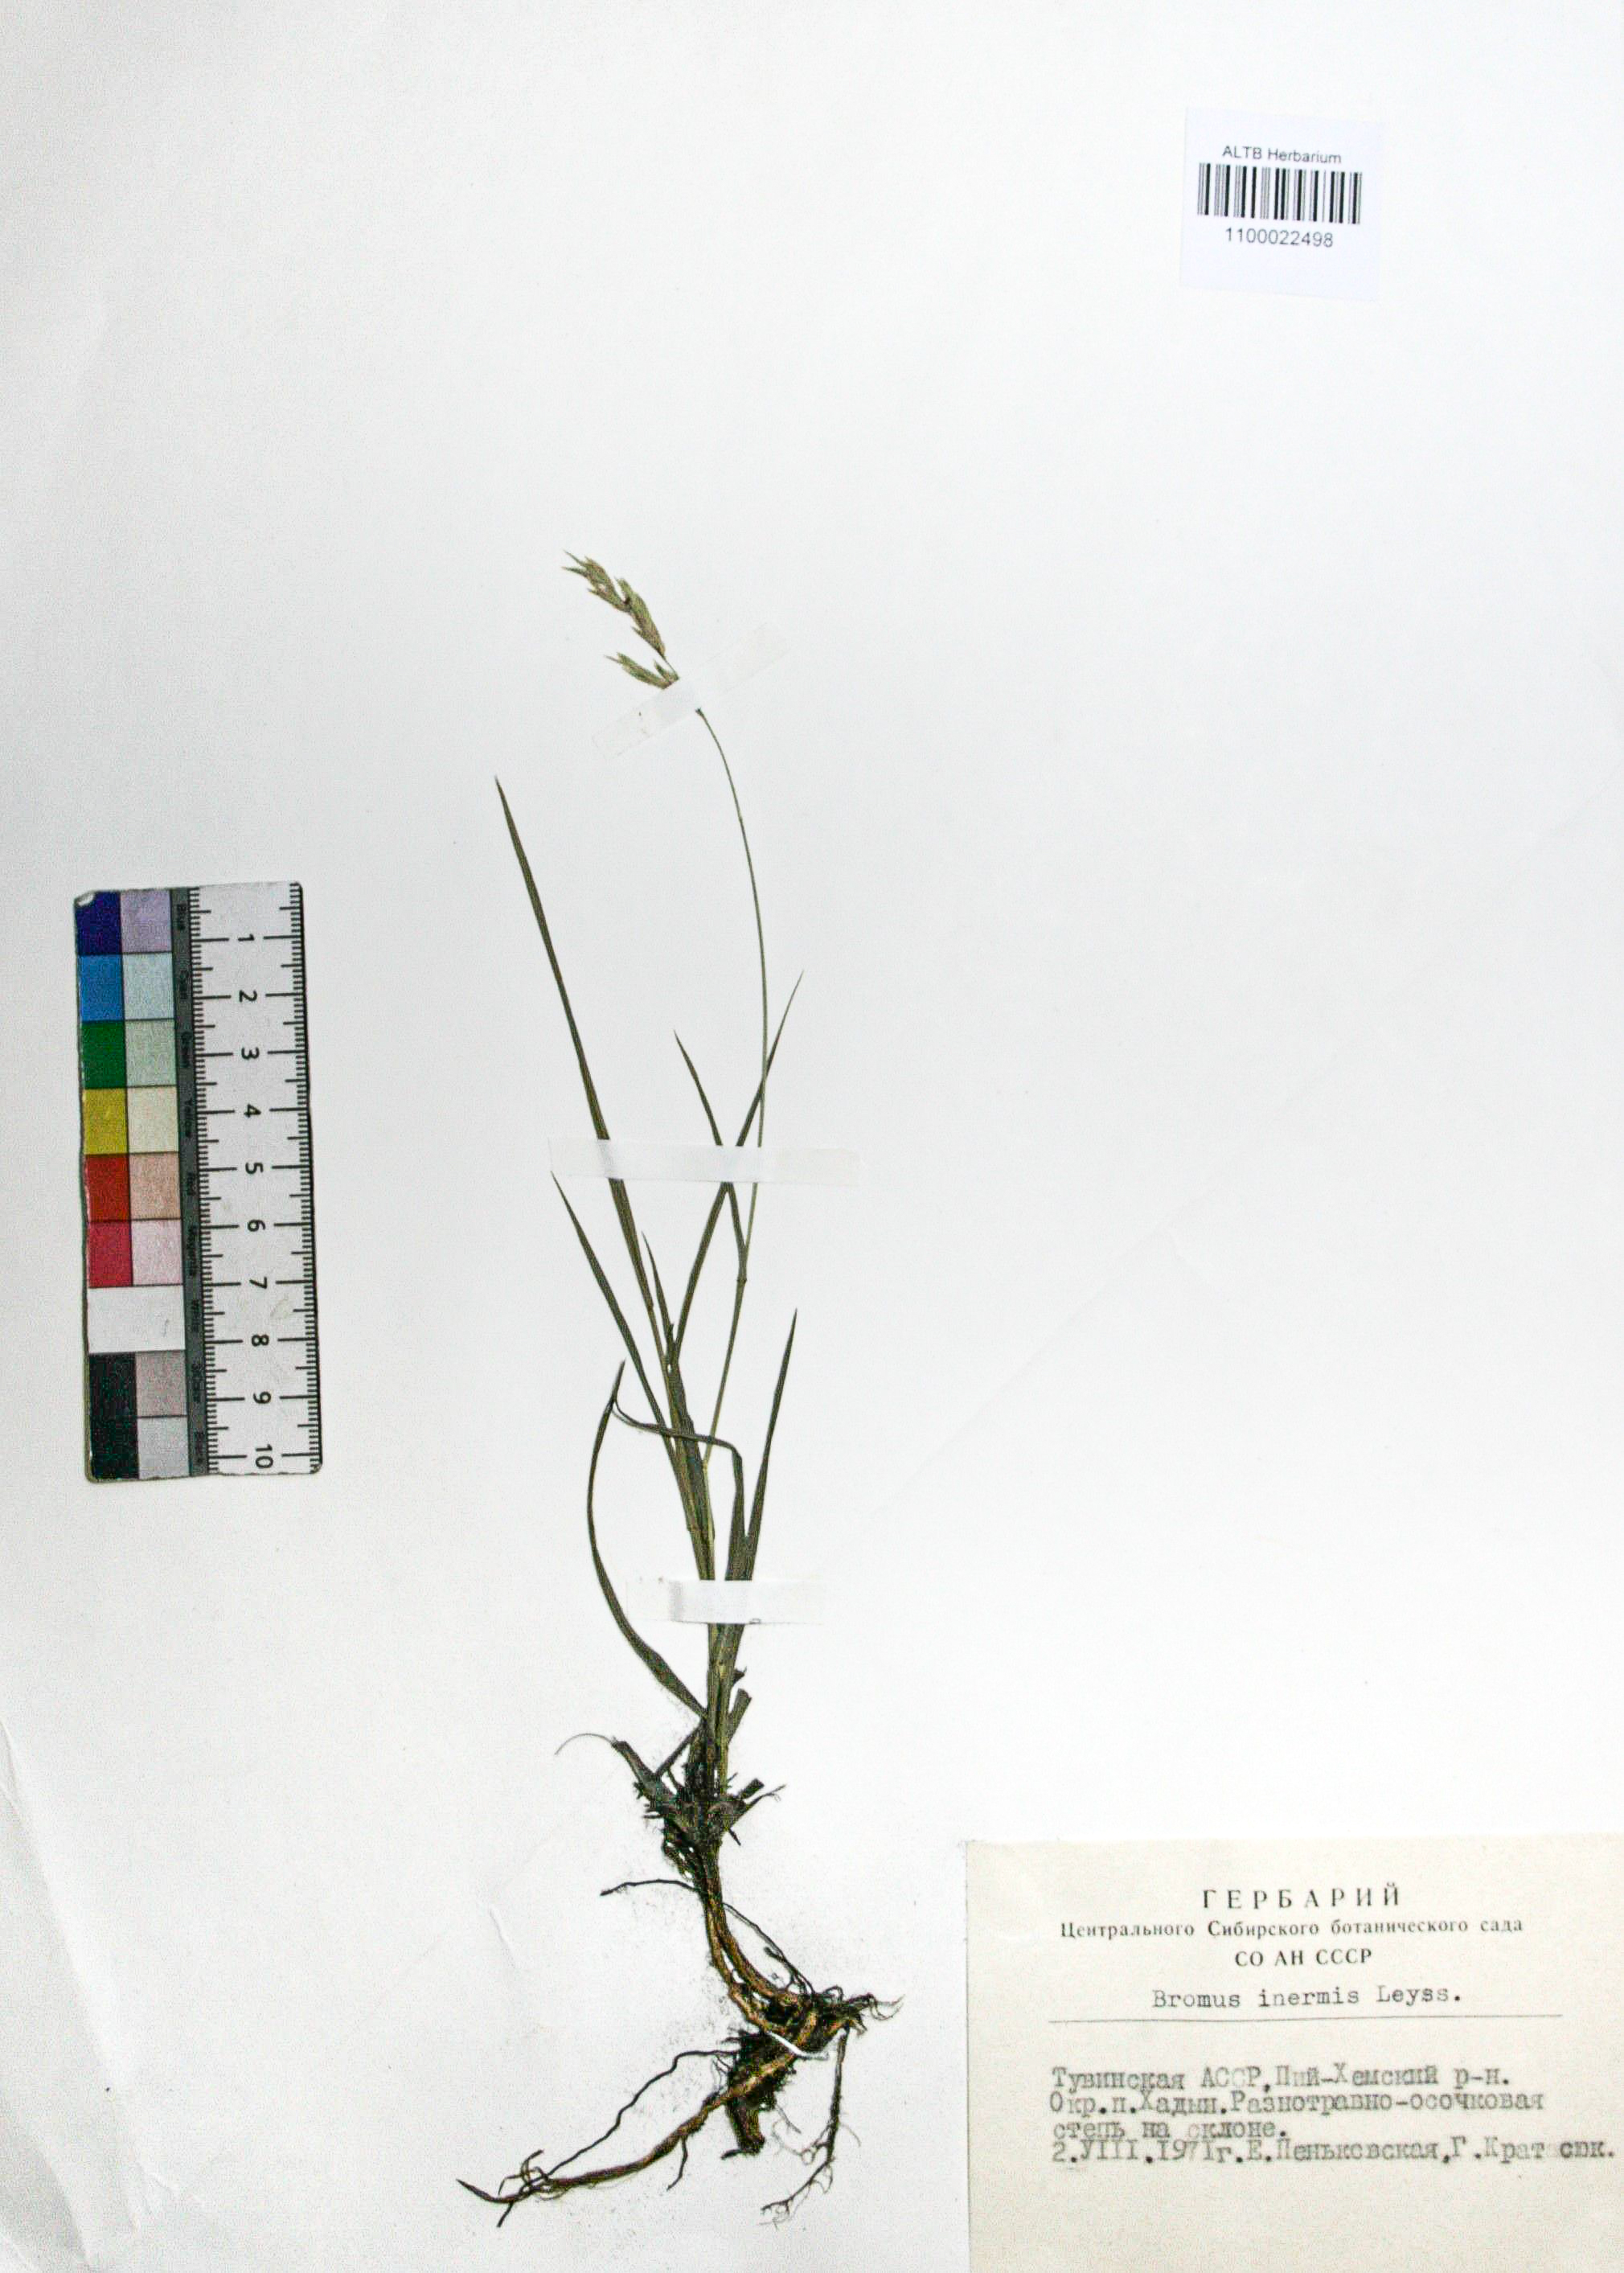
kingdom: Plantae
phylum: Tracheophyta
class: Liliopsida
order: Poales
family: Poaceae
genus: Bromus
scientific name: Bromus inermis
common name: Smooth brome
